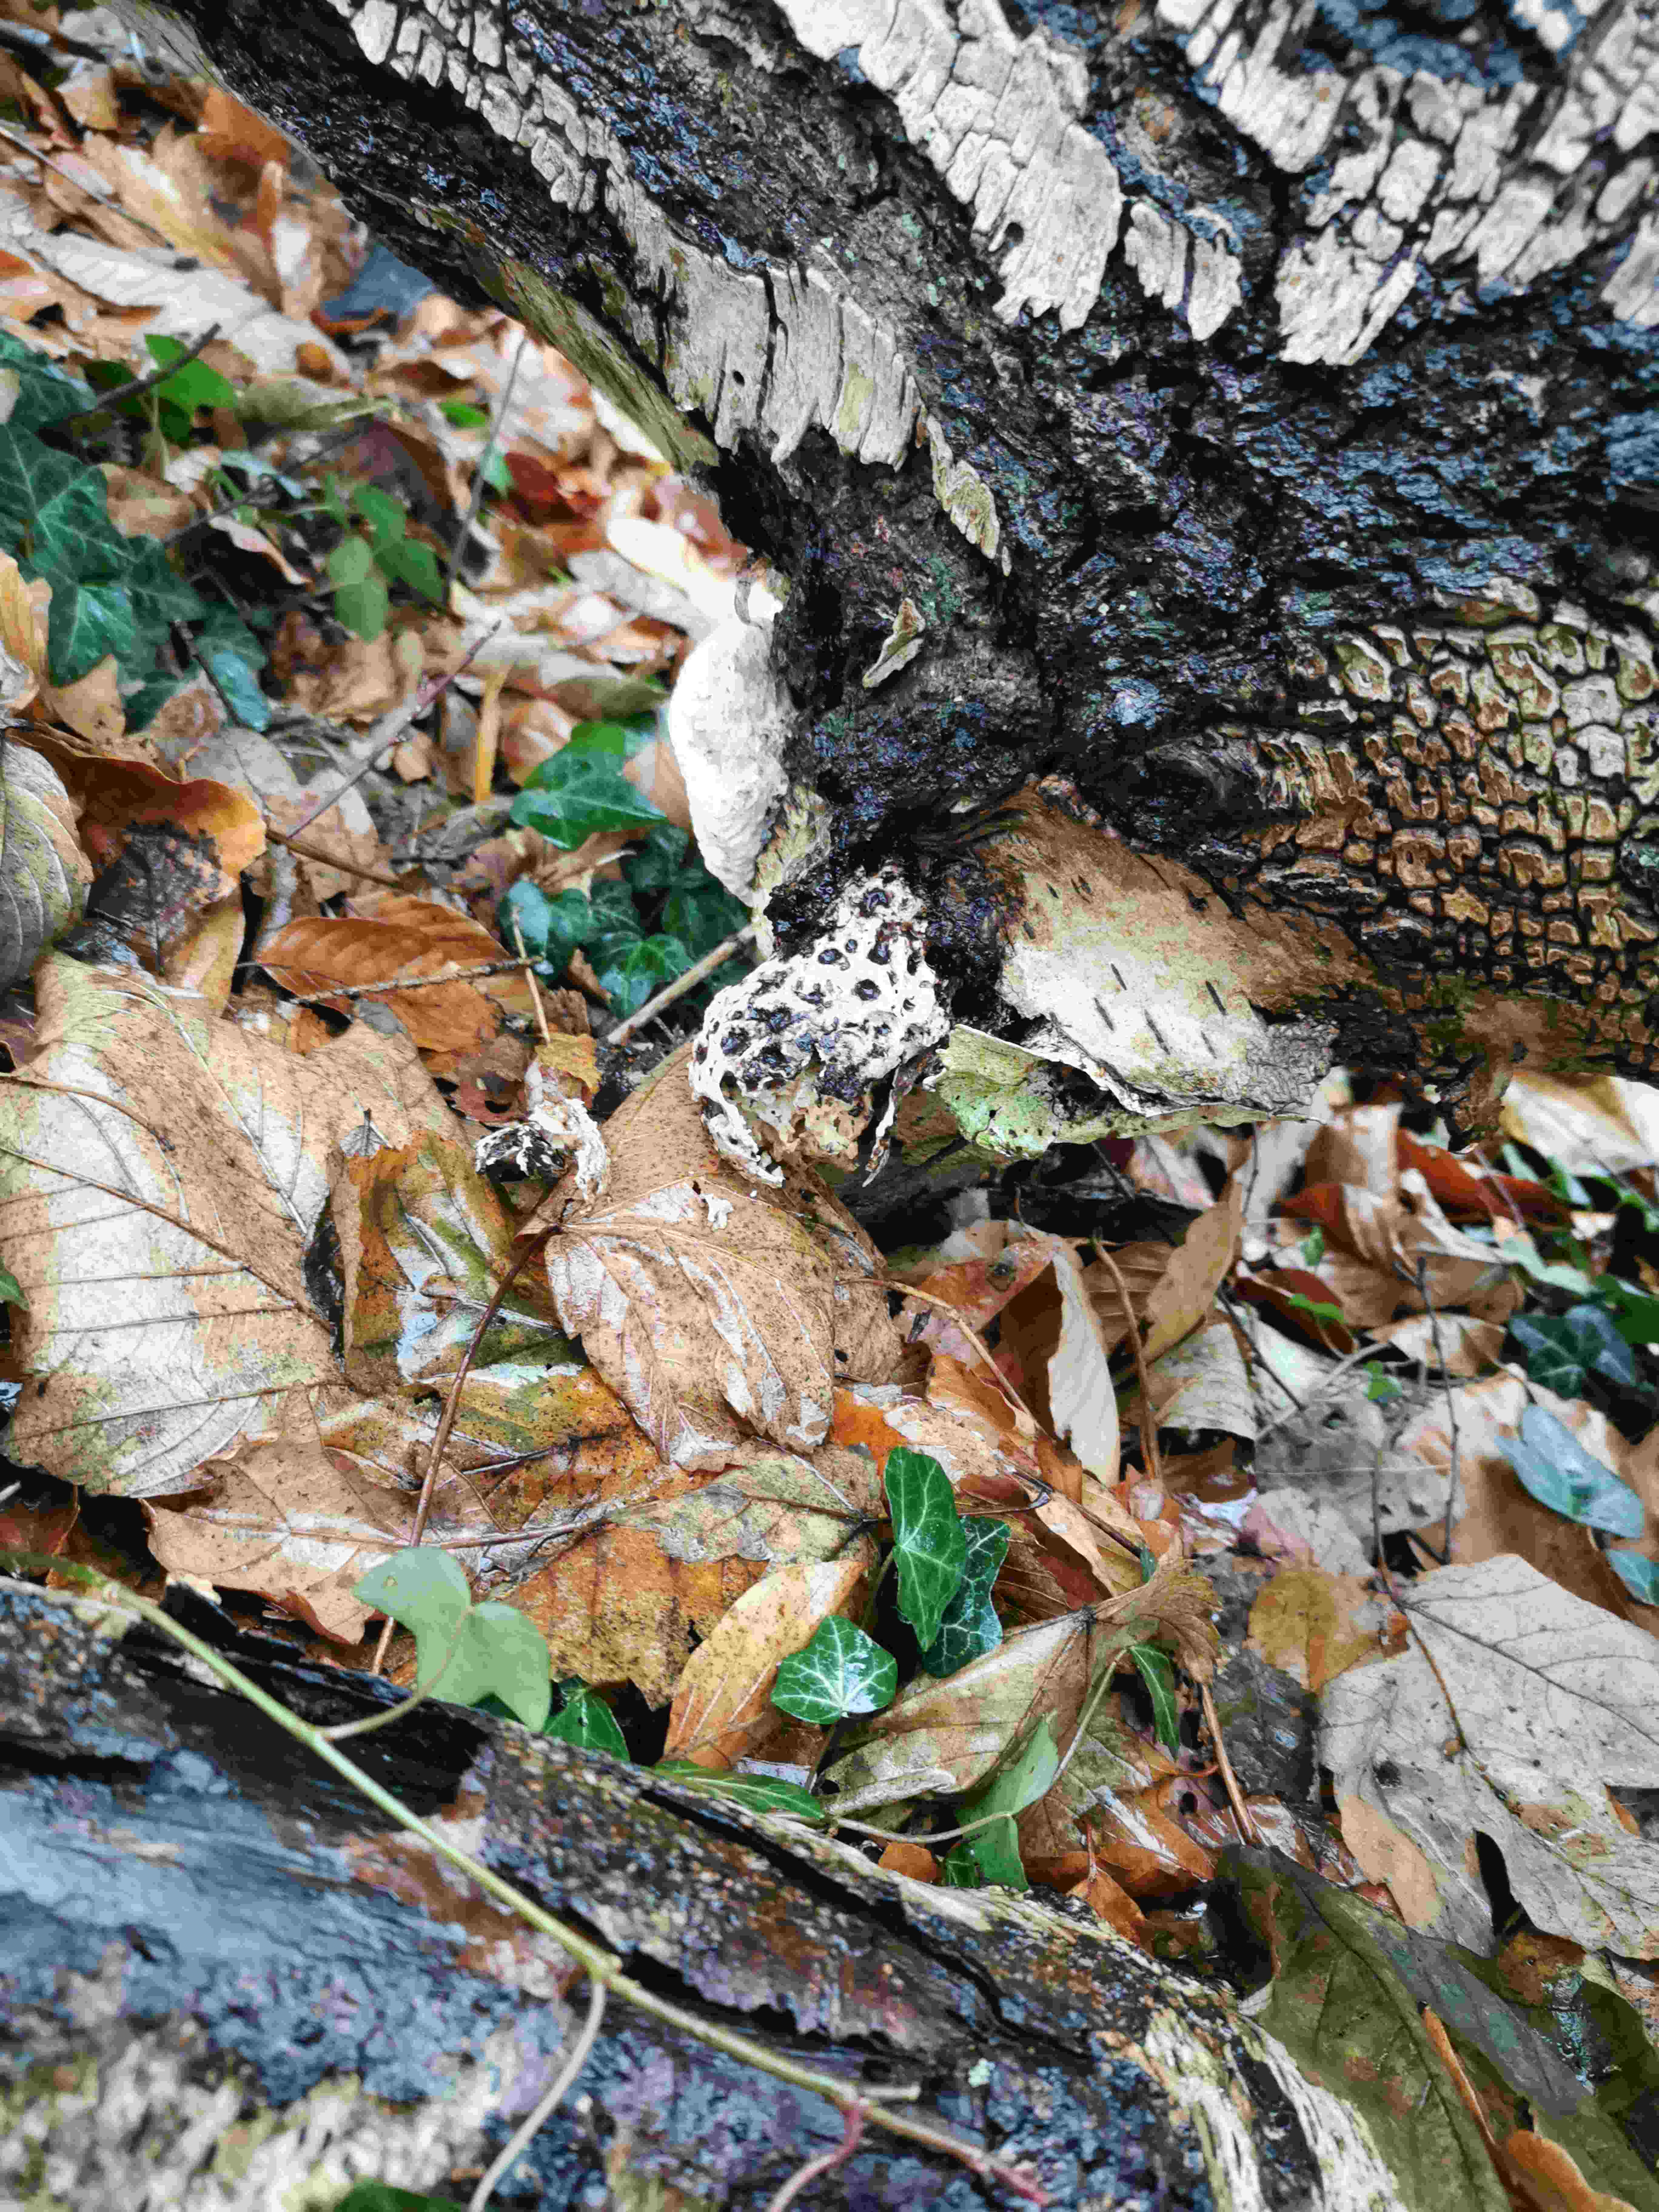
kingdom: Fungi
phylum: Basidiomycota
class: Agaricomycetes
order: Polyporales
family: Fomitopsidaceae
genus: Fomitopsis
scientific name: Fomitopsis betulina
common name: birkeporesvamp
